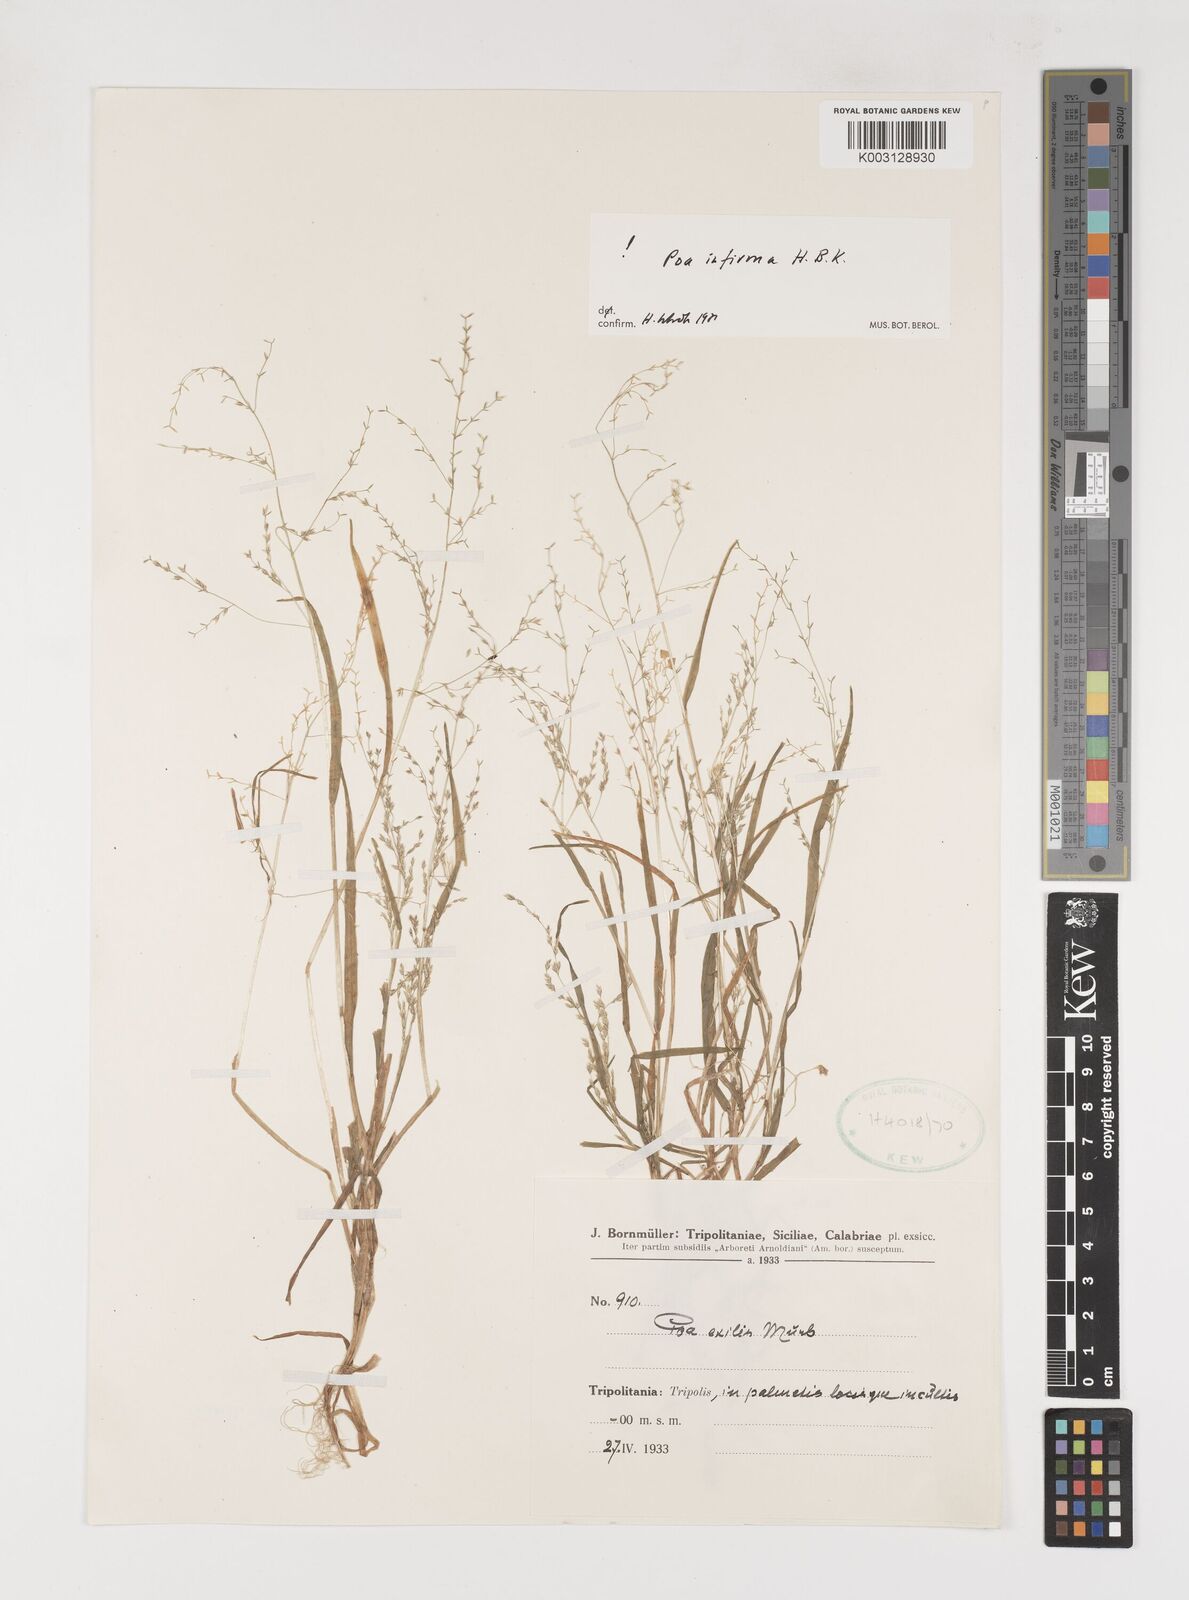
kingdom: Plantae
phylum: Tracheophyta
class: Liliopsida
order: Poales
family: Poaceae
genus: Poa
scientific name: Poa infirma
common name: Weak bluegrass
